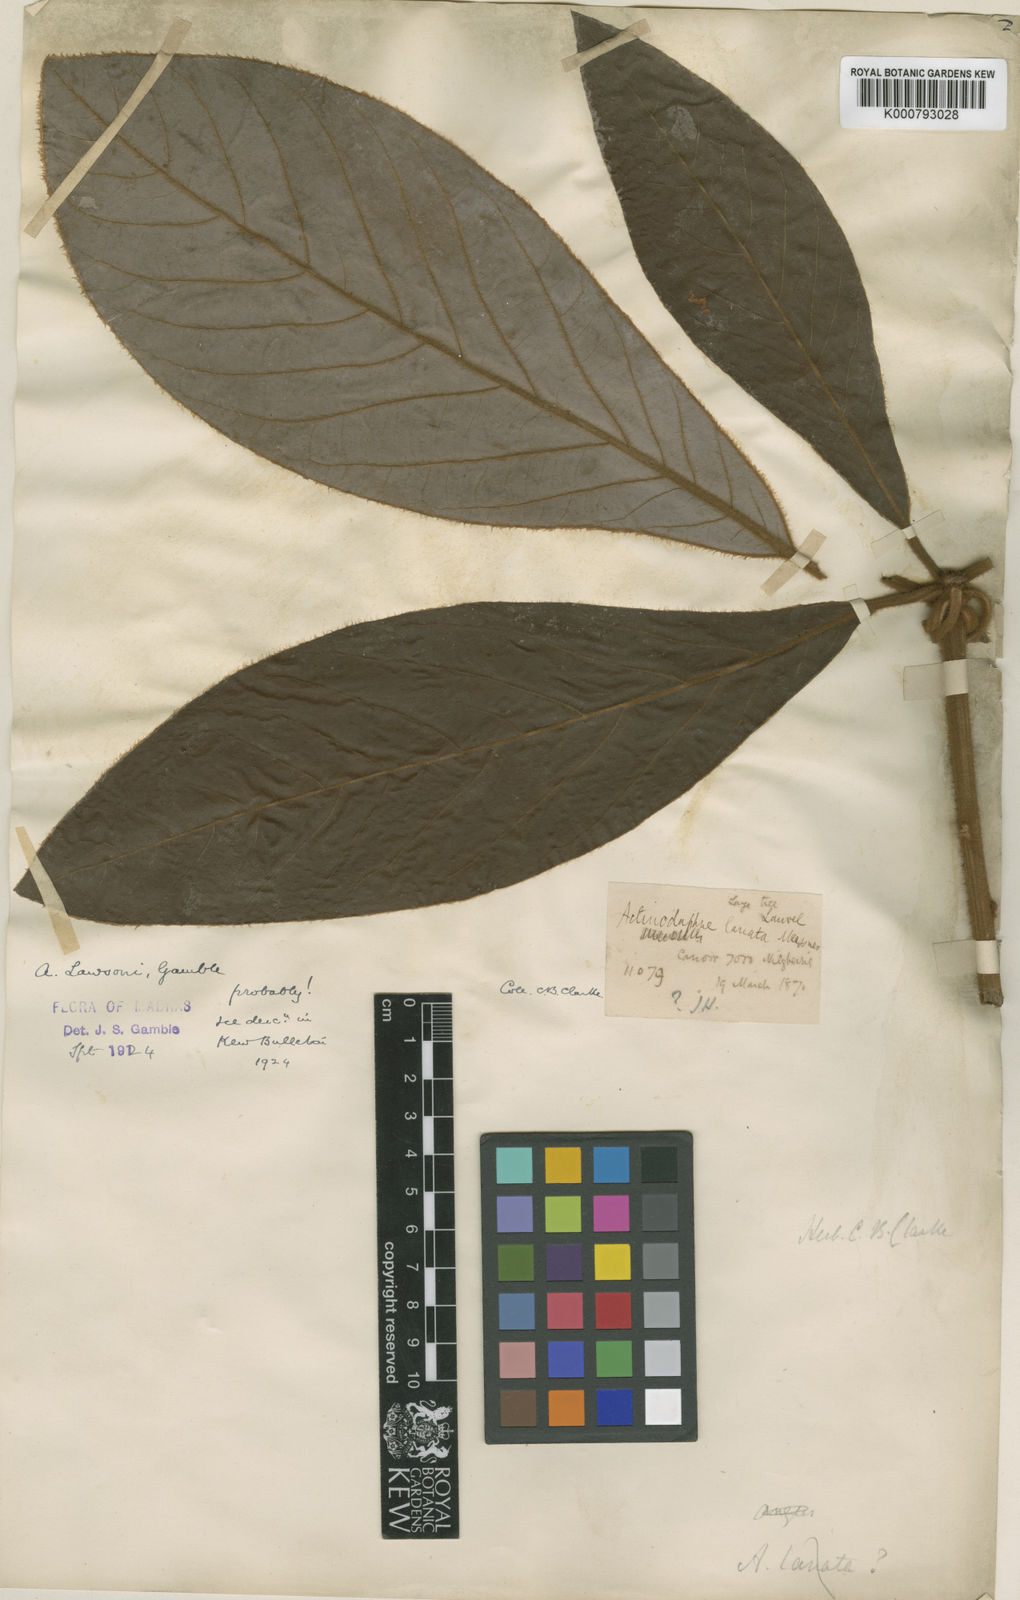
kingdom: Plantae
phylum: Tracheophyta
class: Magnoliopsida
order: Laurales
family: Lauraceae
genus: Actinodaphne
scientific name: Actinodaphne lawsonii
